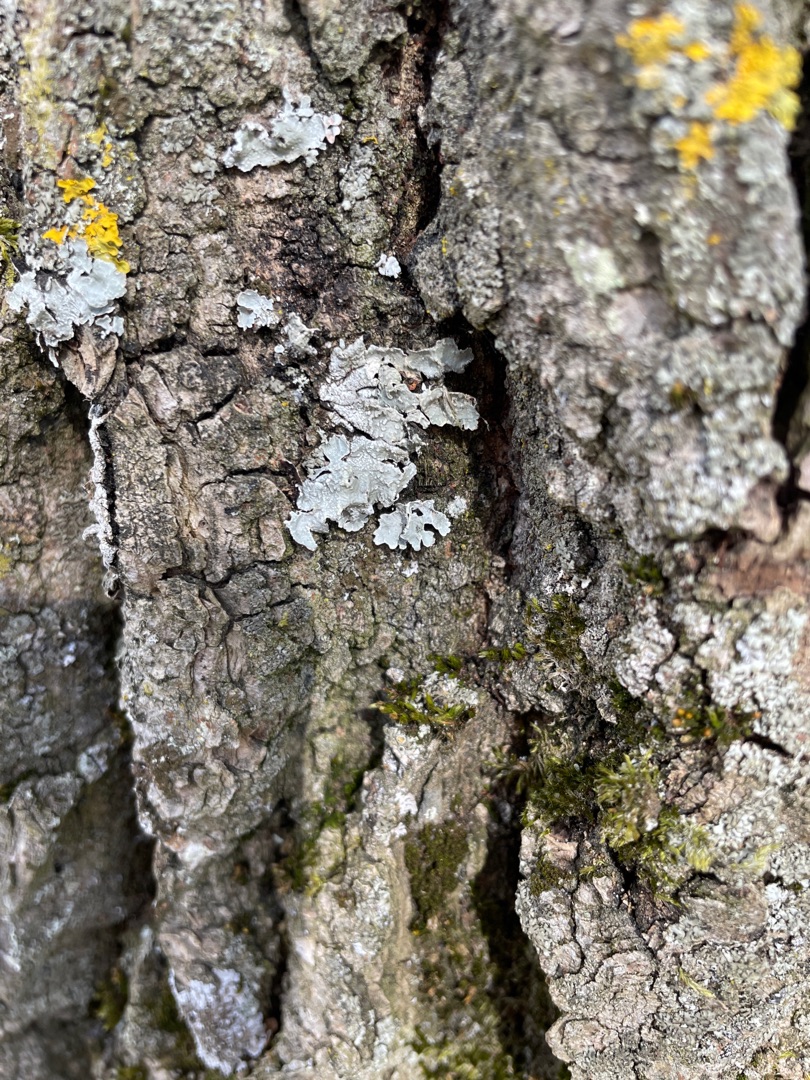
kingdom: Fungi
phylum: Ascomycota
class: Lecanoromycetes
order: Lecanorales
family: Parmeliaceae
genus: Parmelia
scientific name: Parmelia sulcata
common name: Rynket skållav
